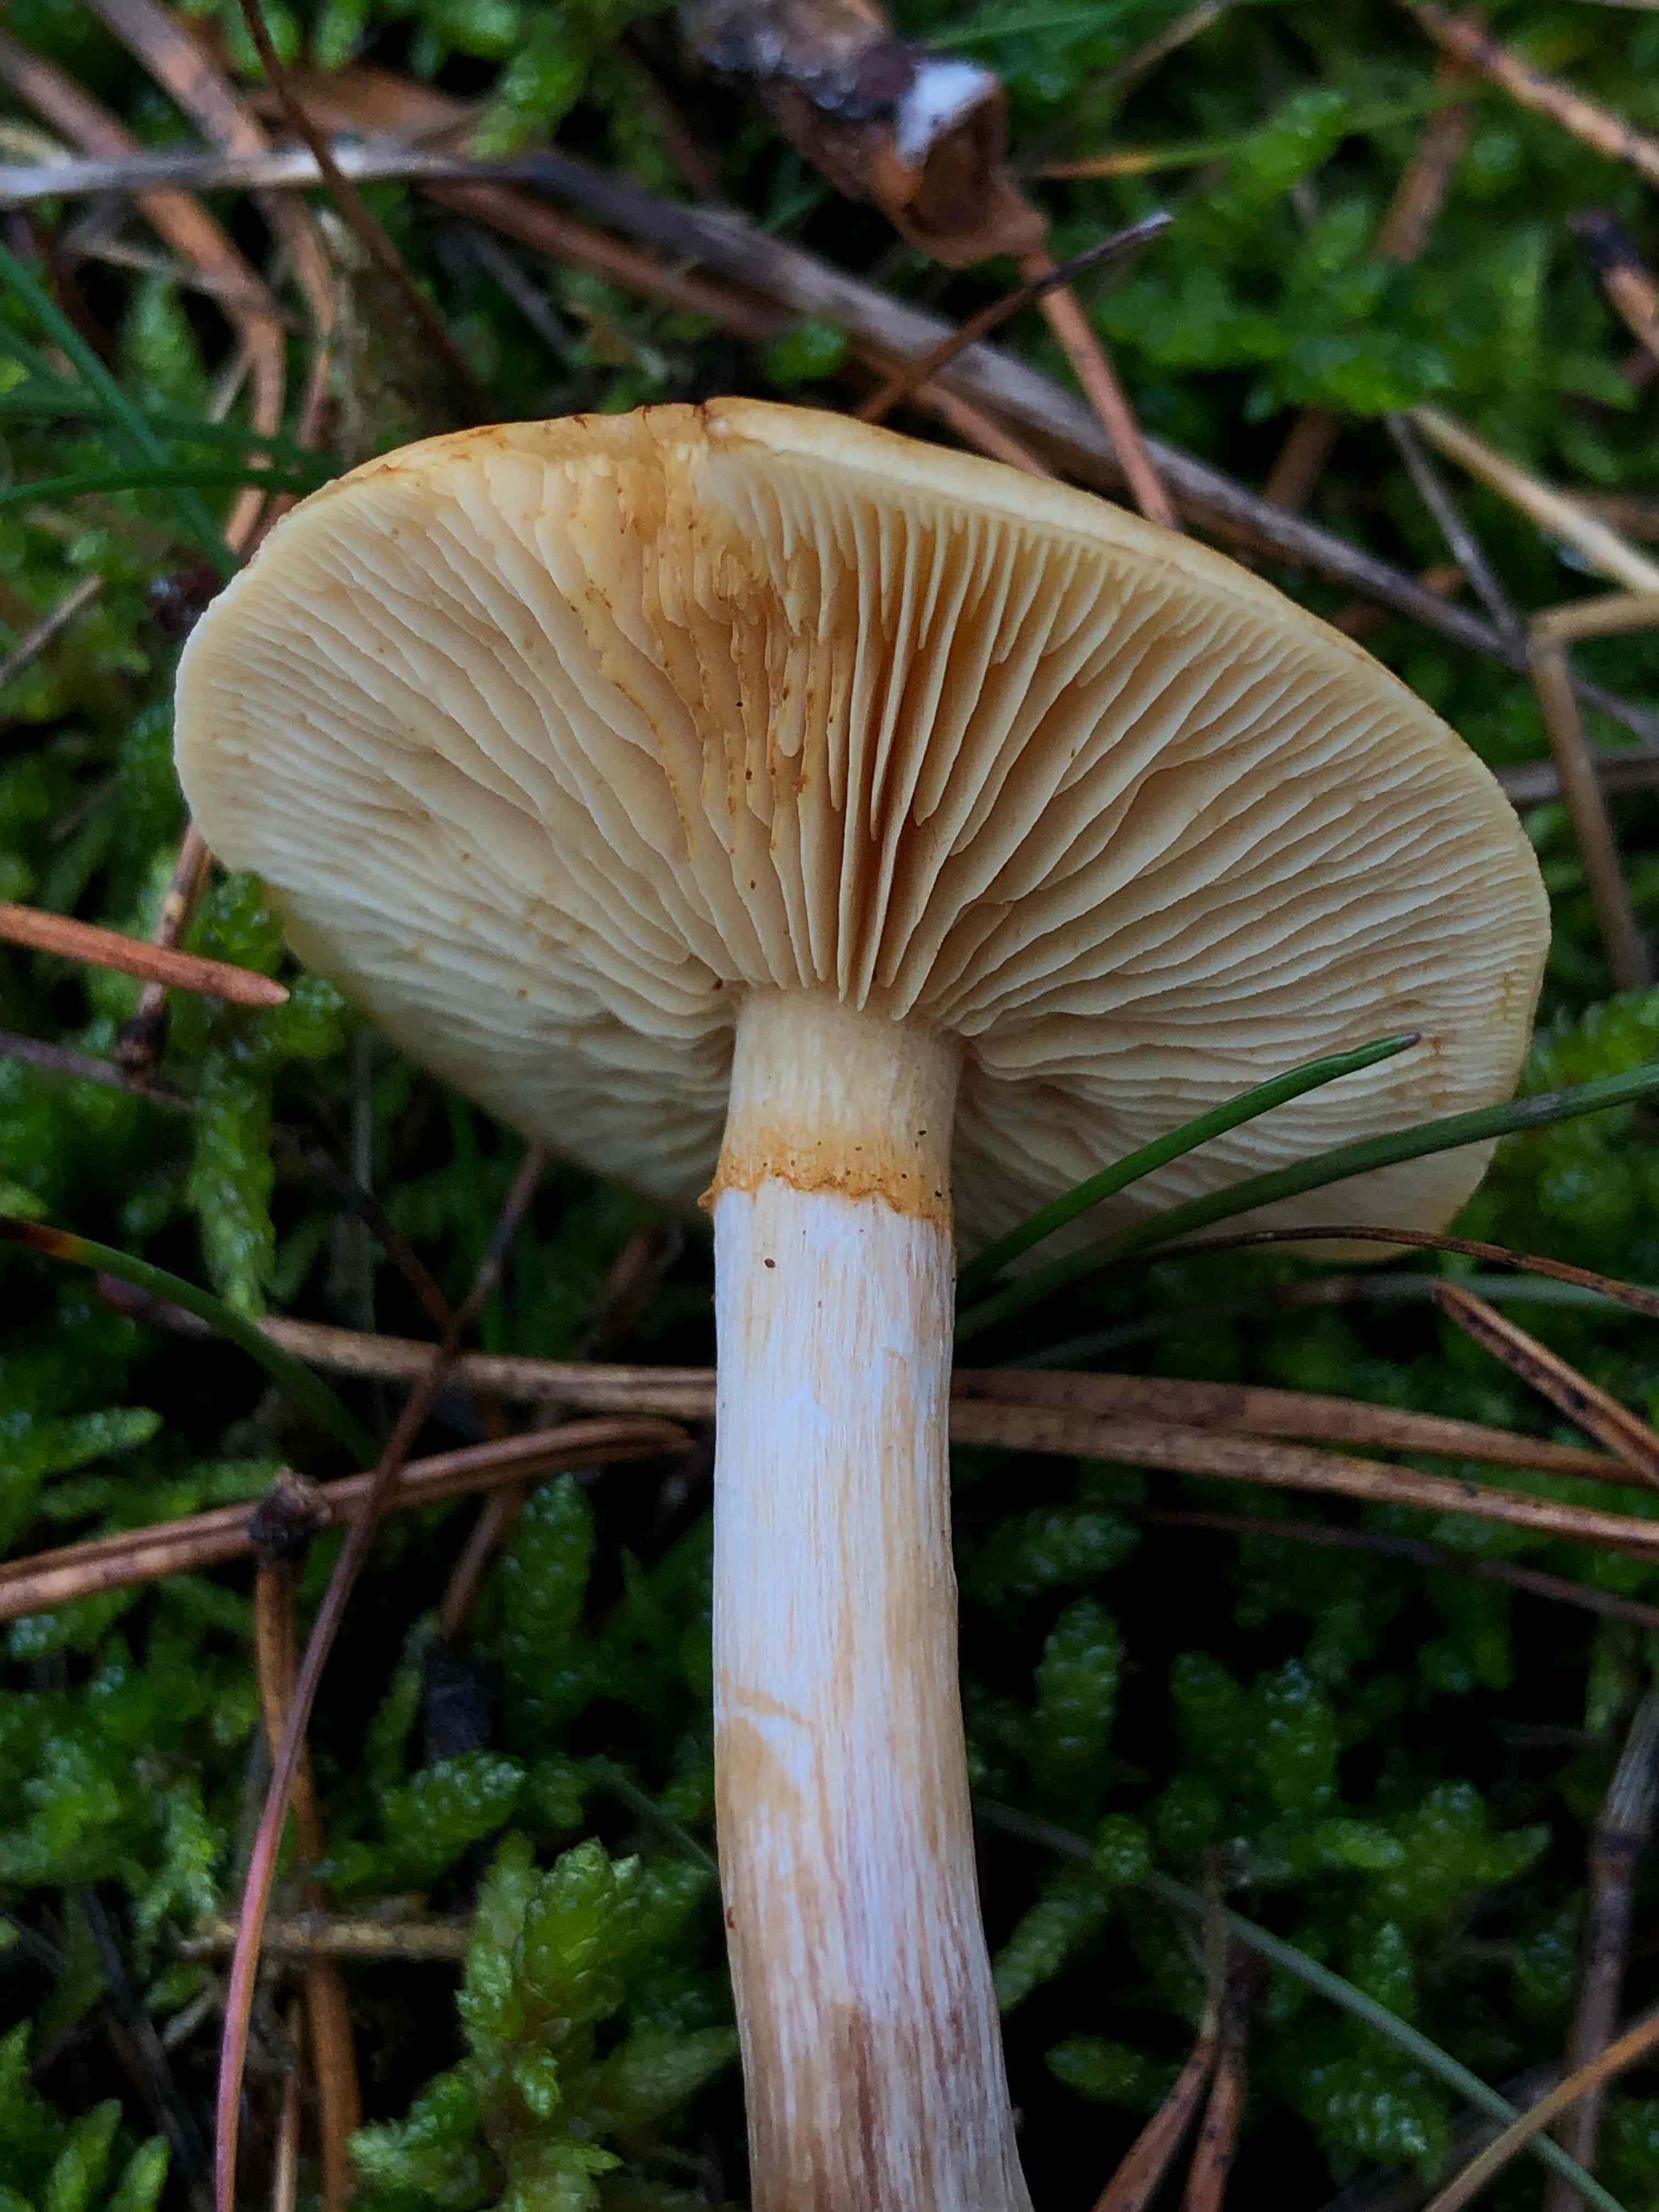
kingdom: Fungi
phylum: Basidiomycota
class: Agaricomycetes
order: Agaricales
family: Hymenogastraceae
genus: Gymnopilus
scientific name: Gymnopilus penetrans
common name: plettet flammehat
